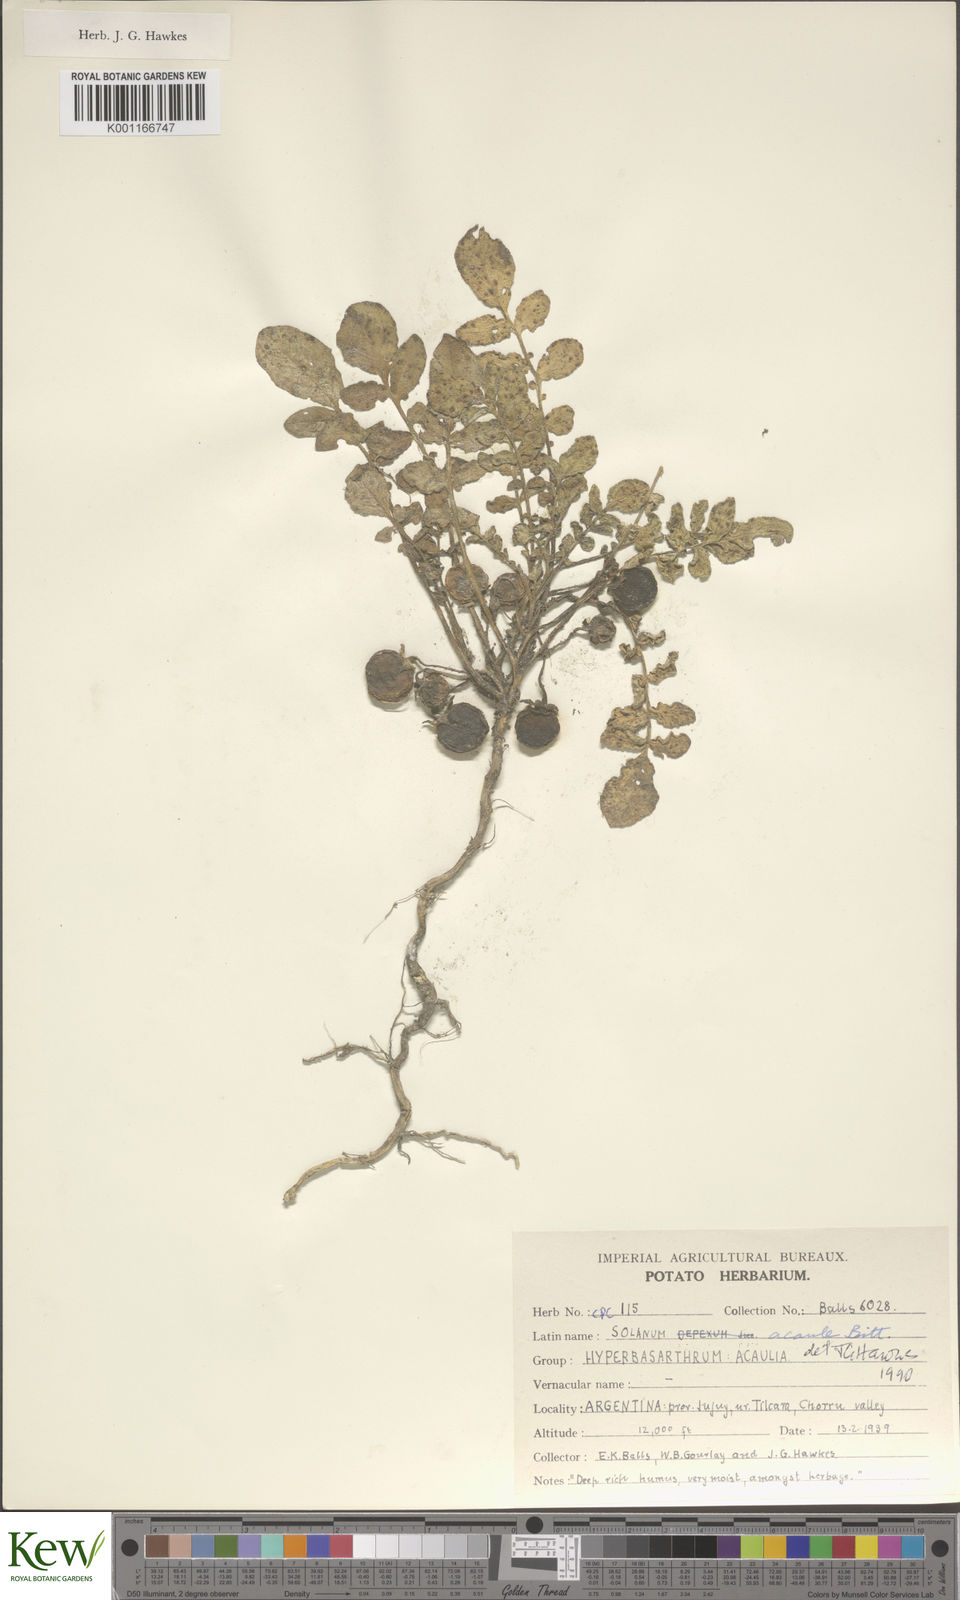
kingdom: Plantae
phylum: Tracheophyta
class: Magnoliopsida
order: Solanales
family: Solanaceae
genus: Solanum
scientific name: Solanum acaule
